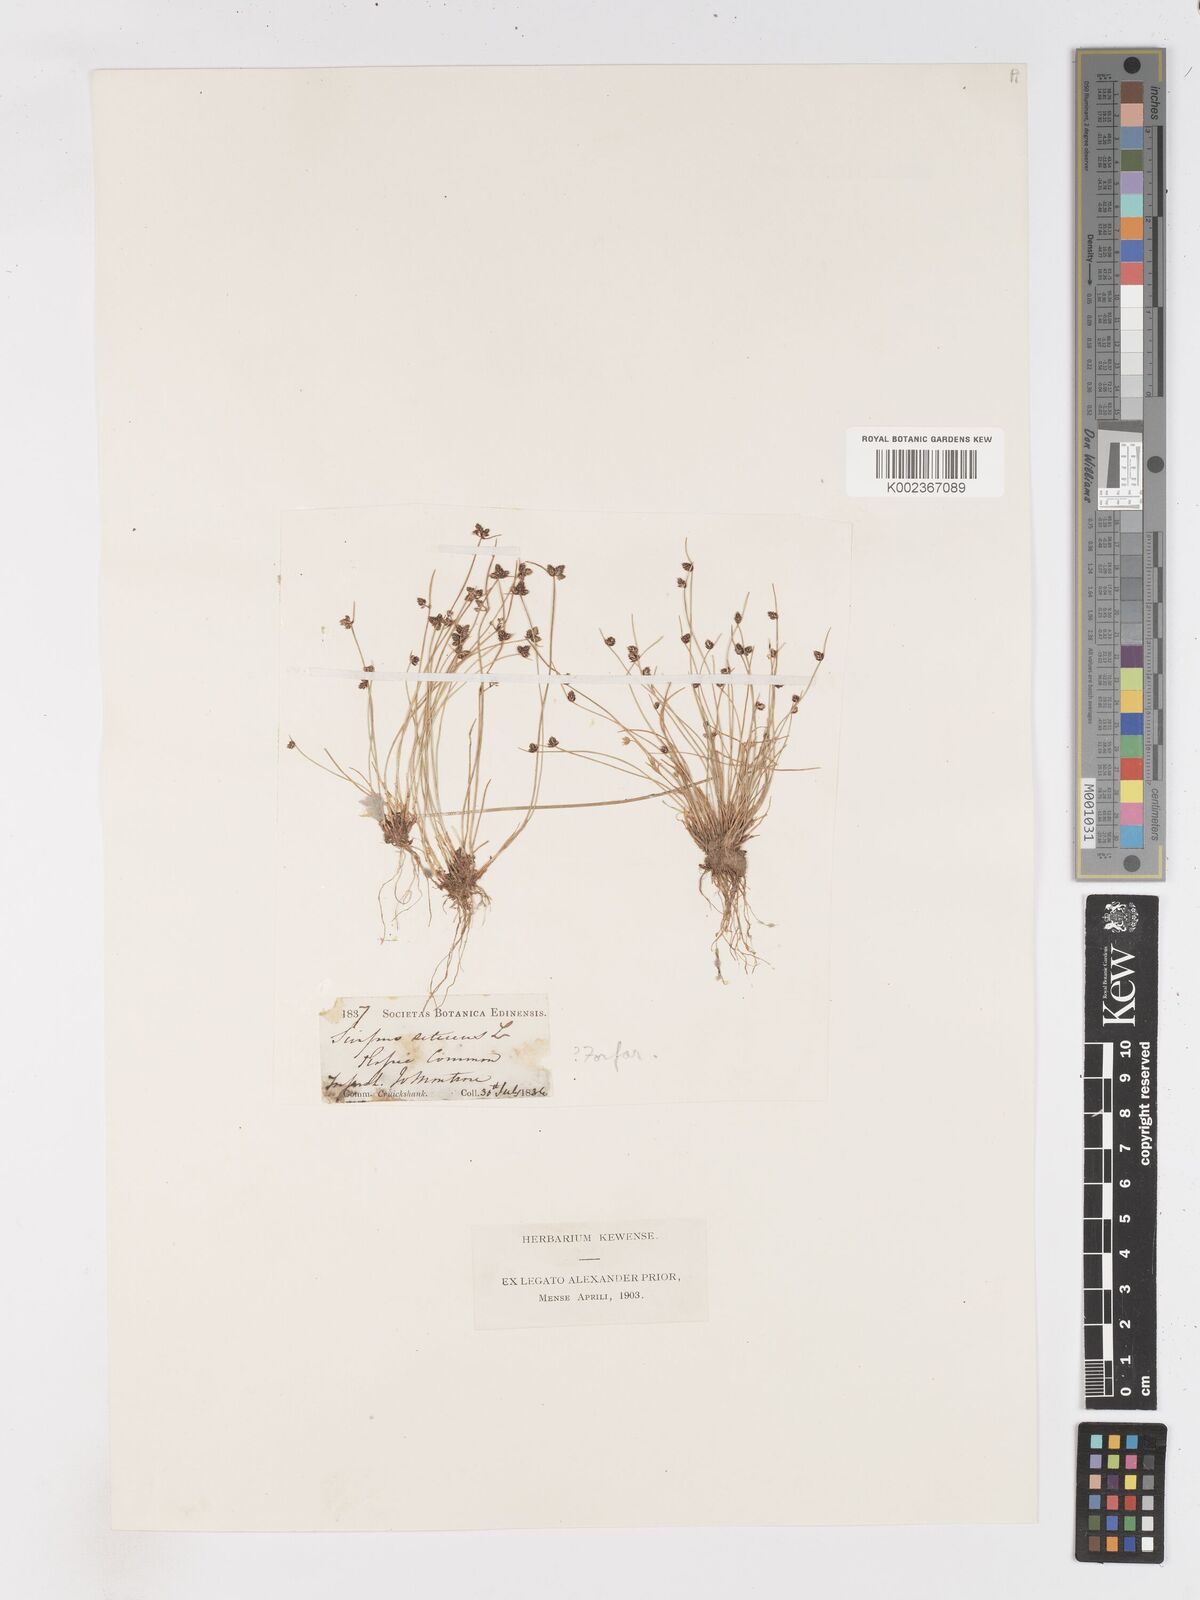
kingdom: Plantae
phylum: Tracheophyta
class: Liliopsida
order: Poales
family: Cyperaceae
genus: Isolepis
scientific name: Isolepis setacea
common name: Bristle club-rush
